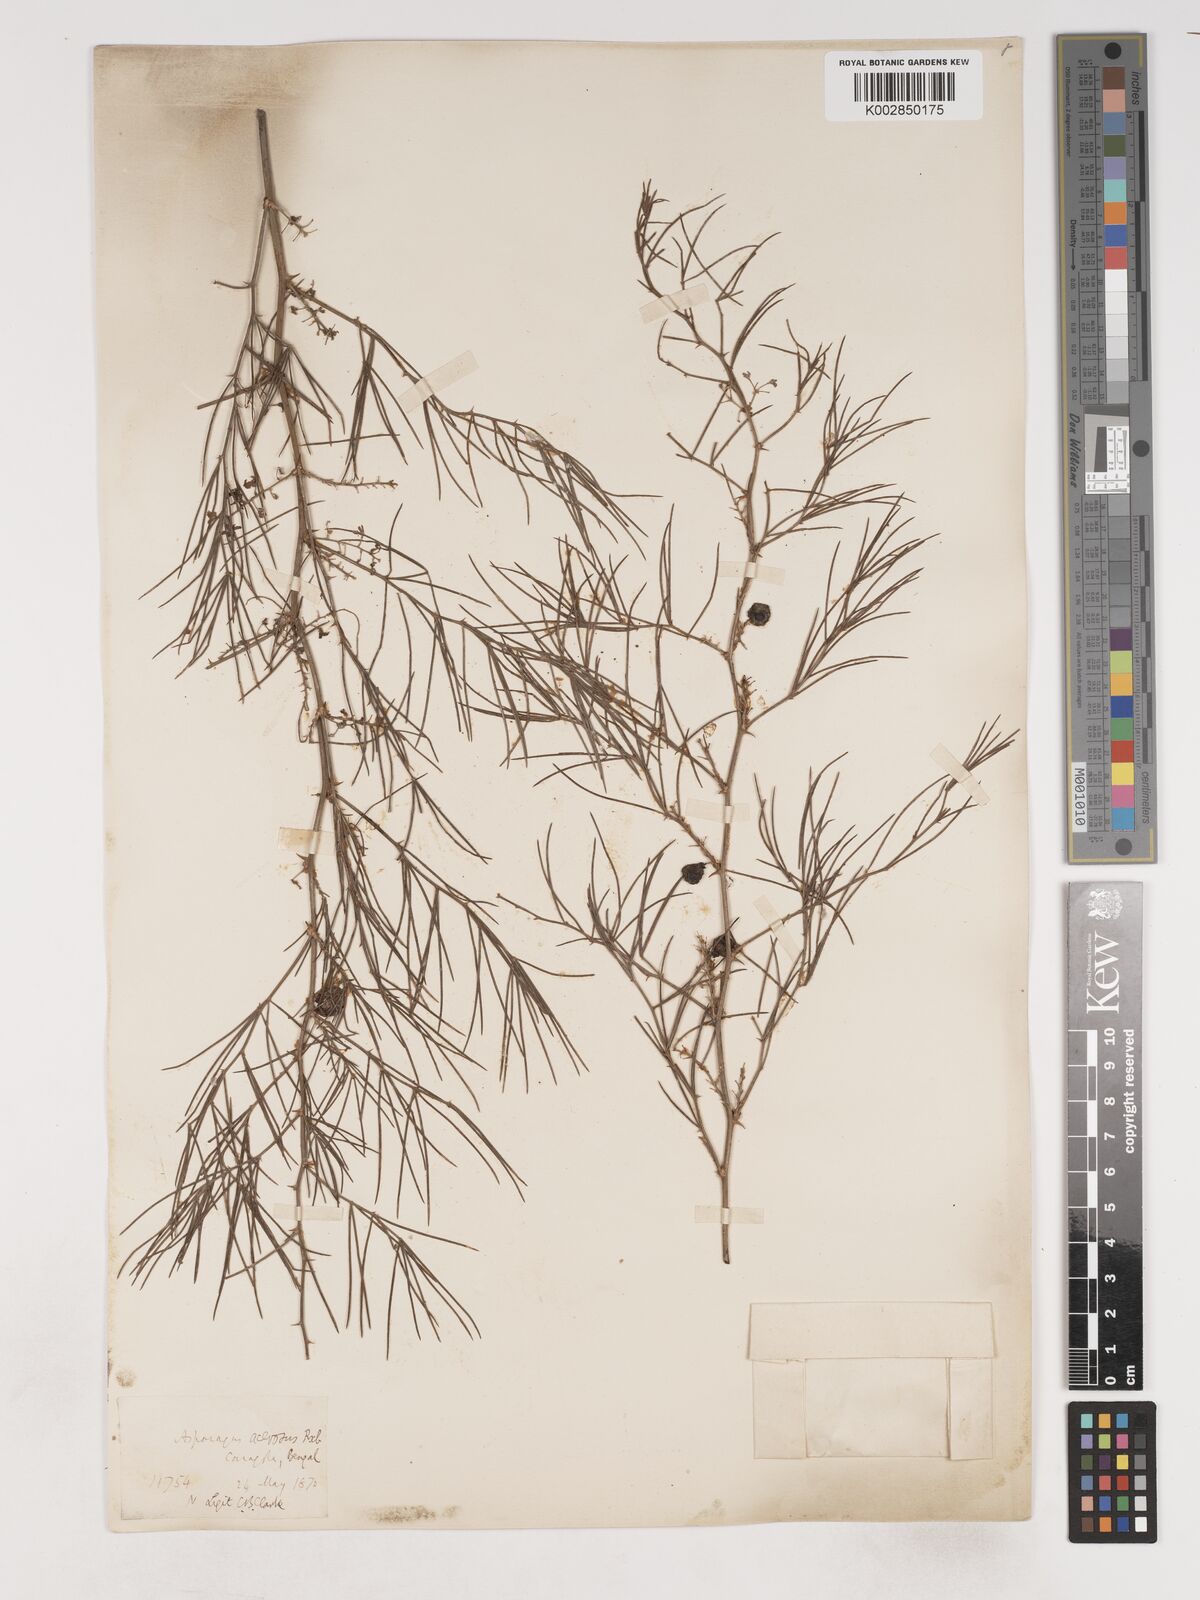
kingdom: Plantae
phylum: Tracheophyta
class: Liliopsida
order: Asparagales
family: Asparagaceae
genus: Asparagus
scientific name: Asparagus racemosus
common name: Asparagus-fern
